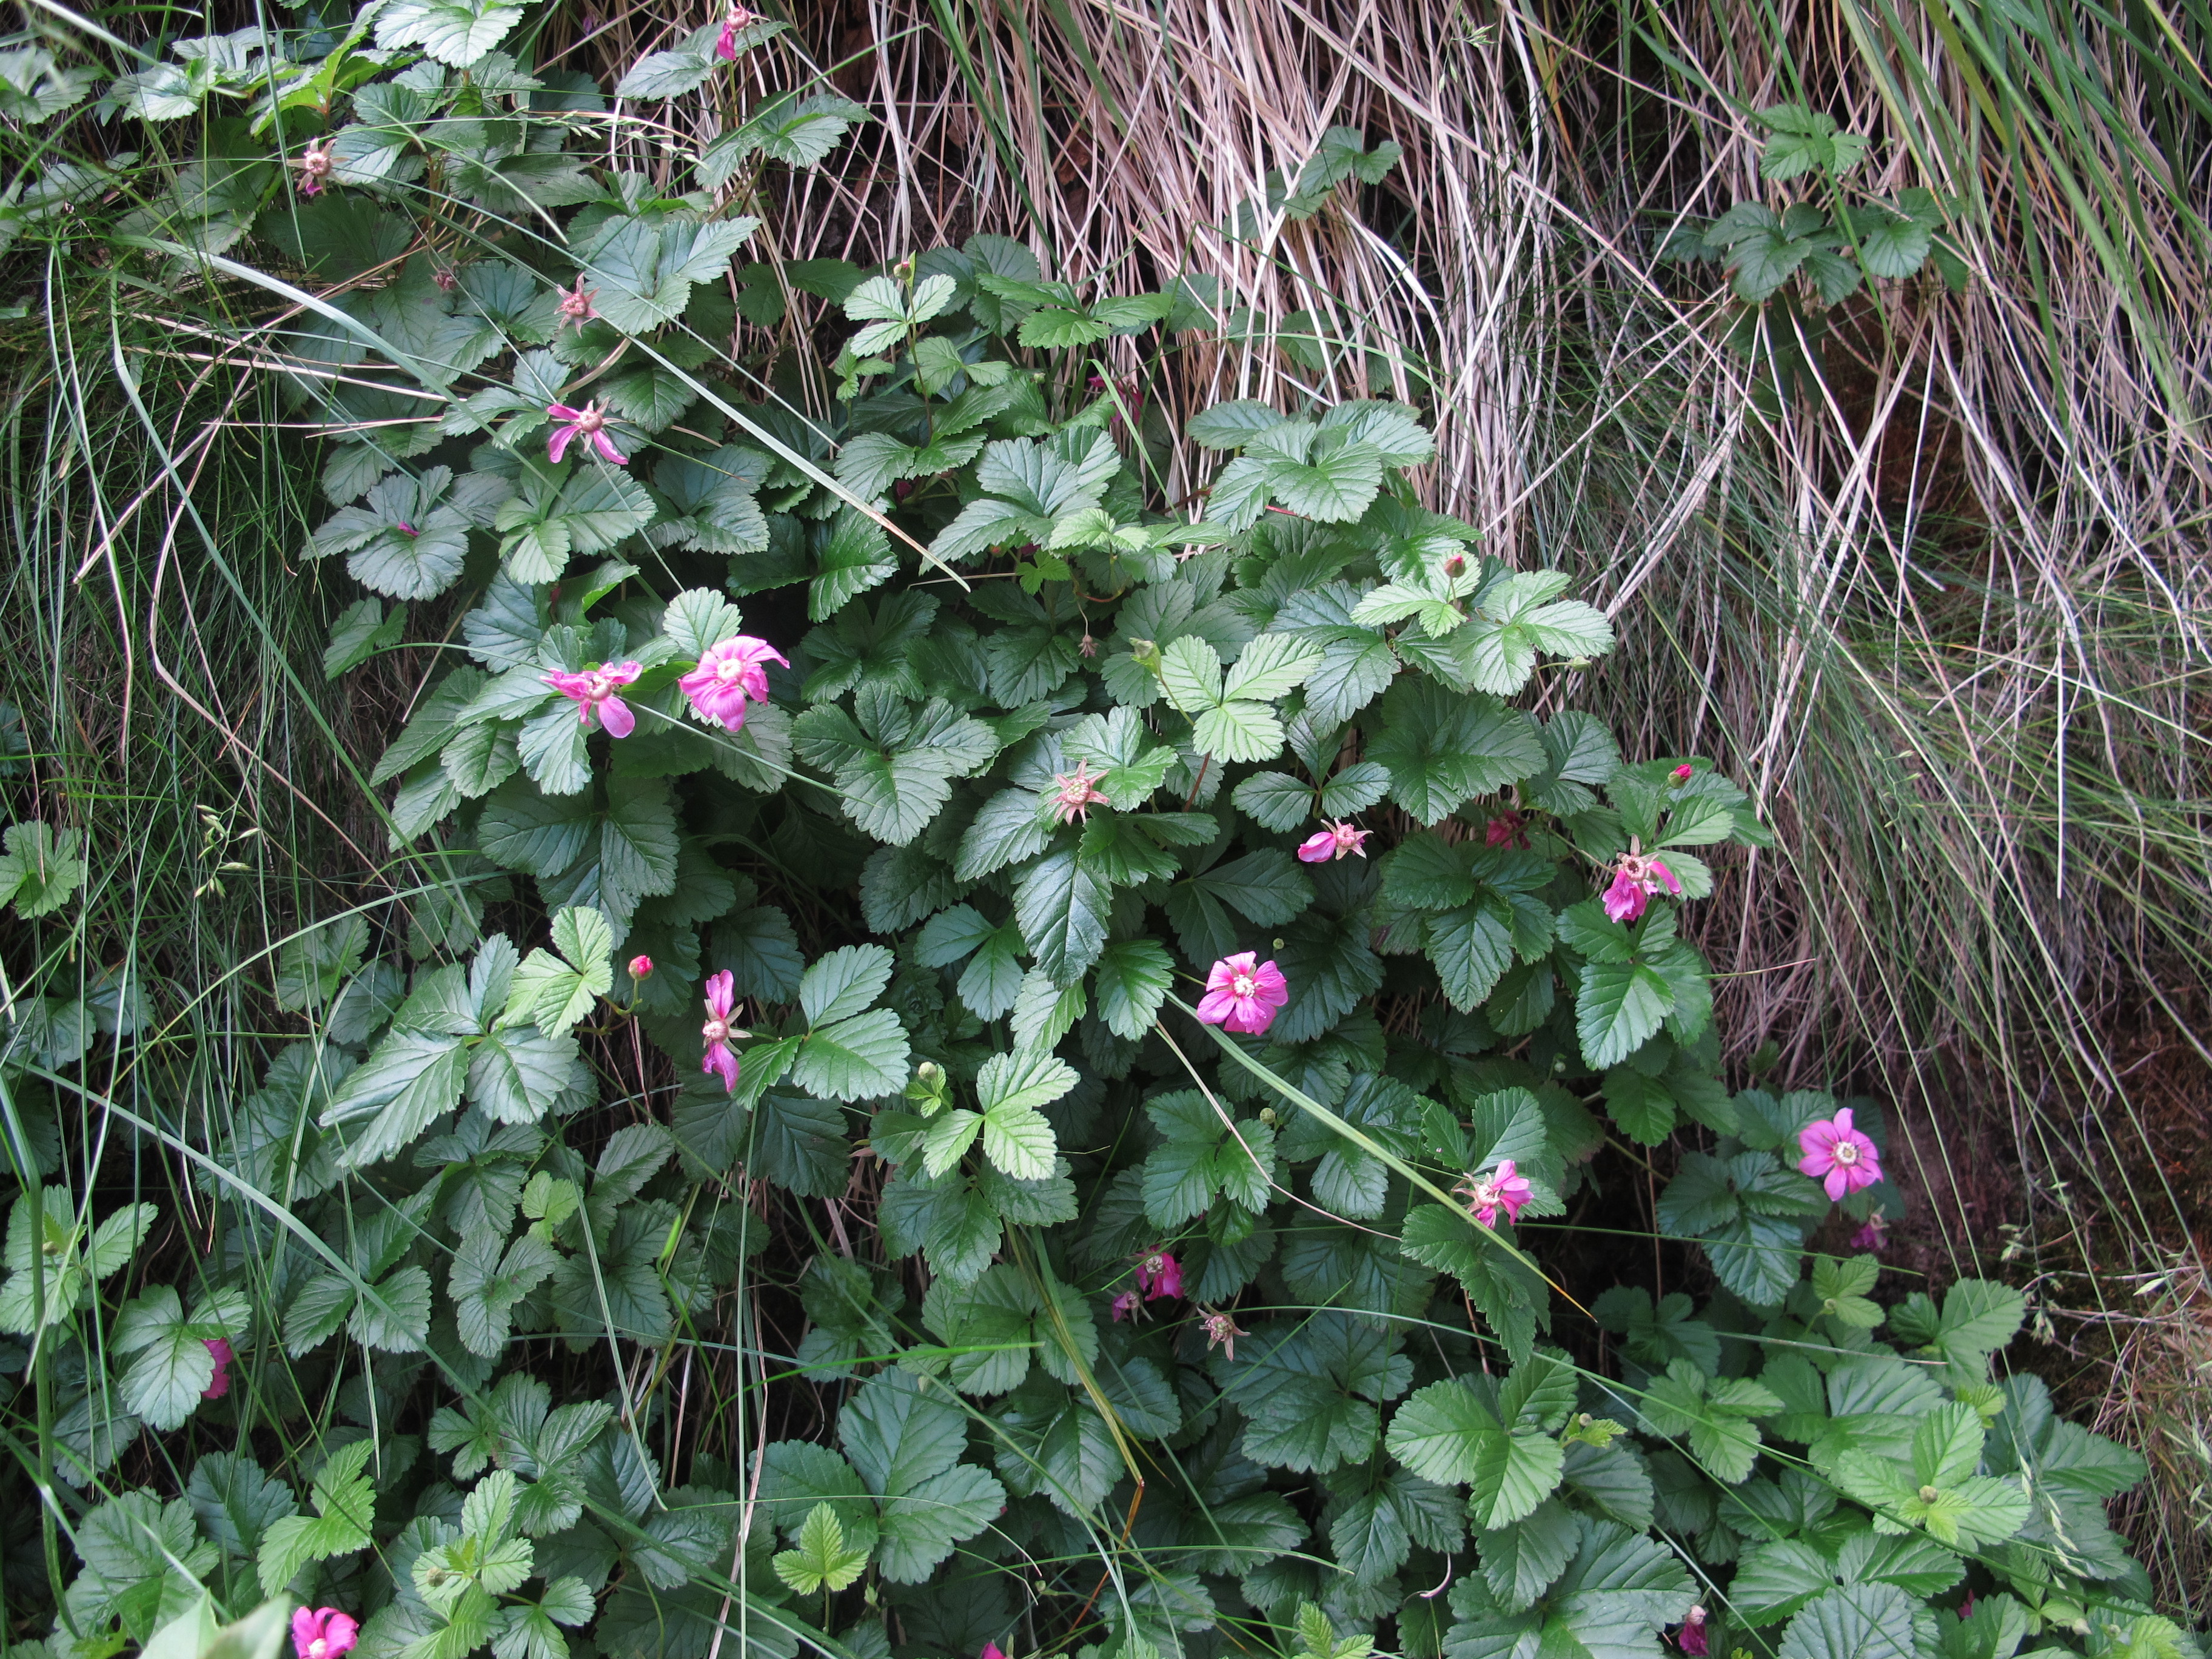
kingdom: Plantae
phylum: Tracheophyta
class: Magnoliopsida
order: Rosales
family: Rosaceae
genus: Rubus
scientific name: Rubus arcticus
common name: Arctic bramble
